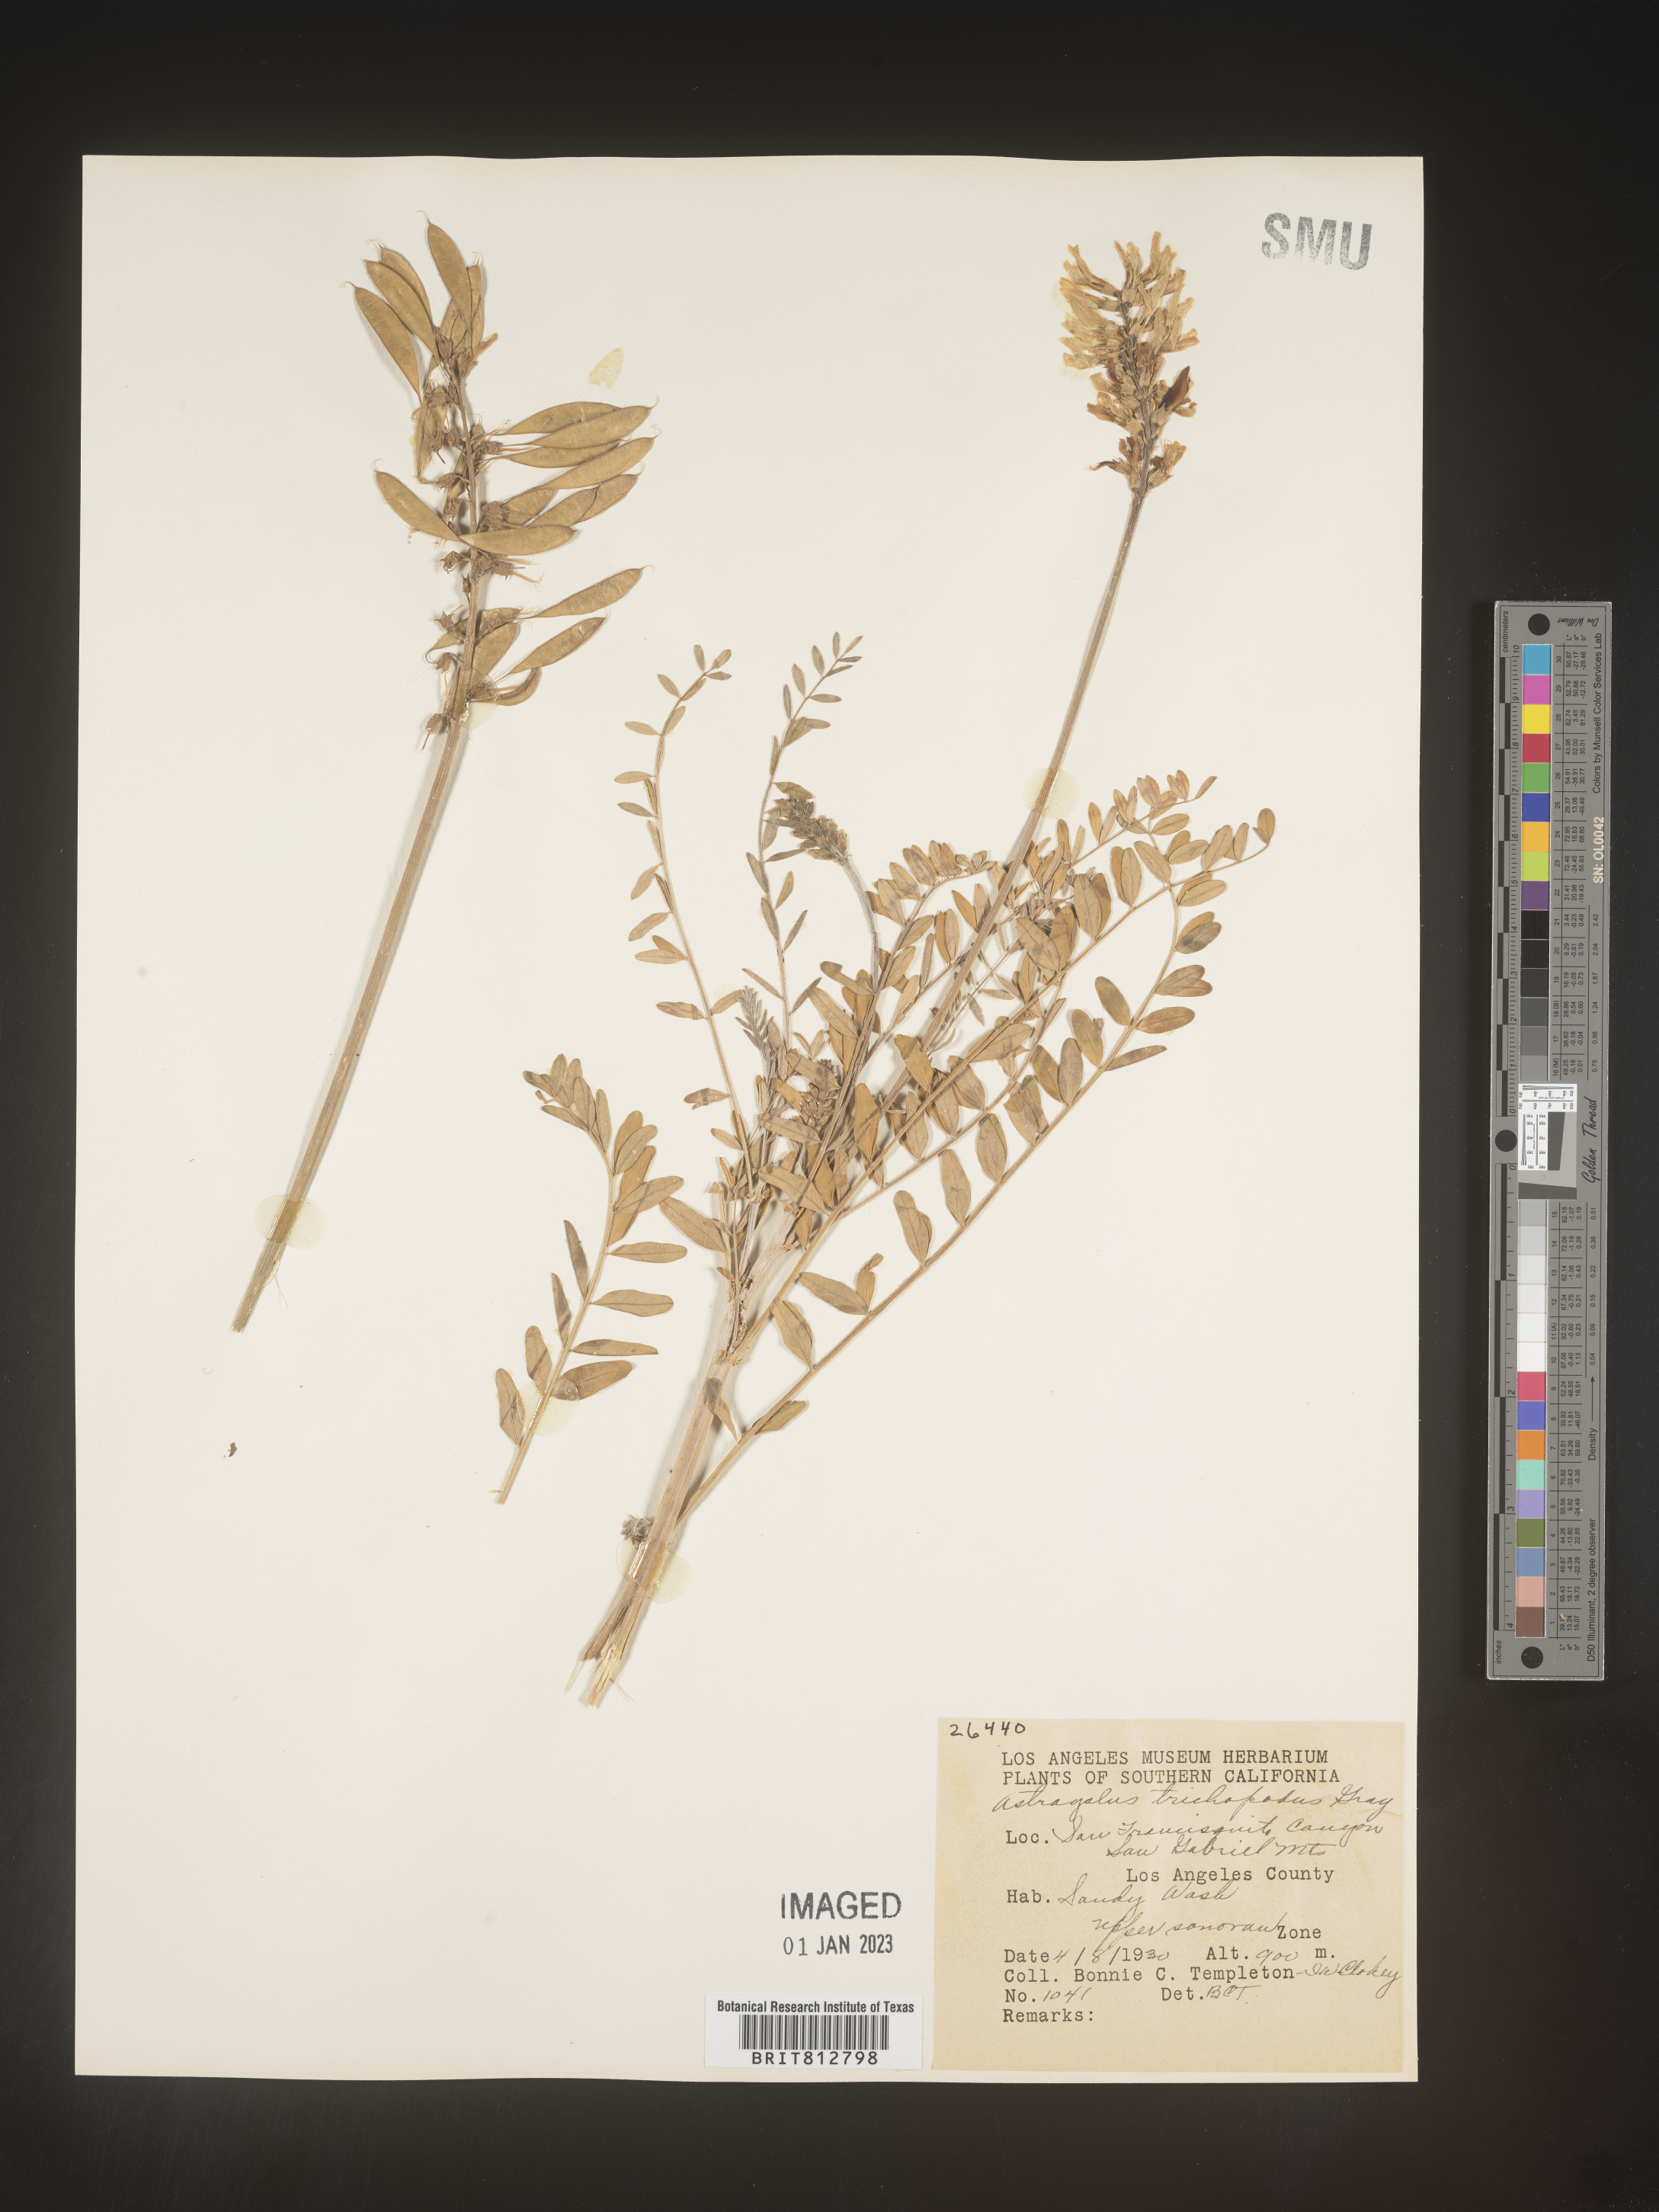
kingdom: Plantae
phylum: Tracheophyta
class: Magnoliopsida
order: Fabales
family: Fabaceae
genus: Astragalus
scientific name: Astragalus
